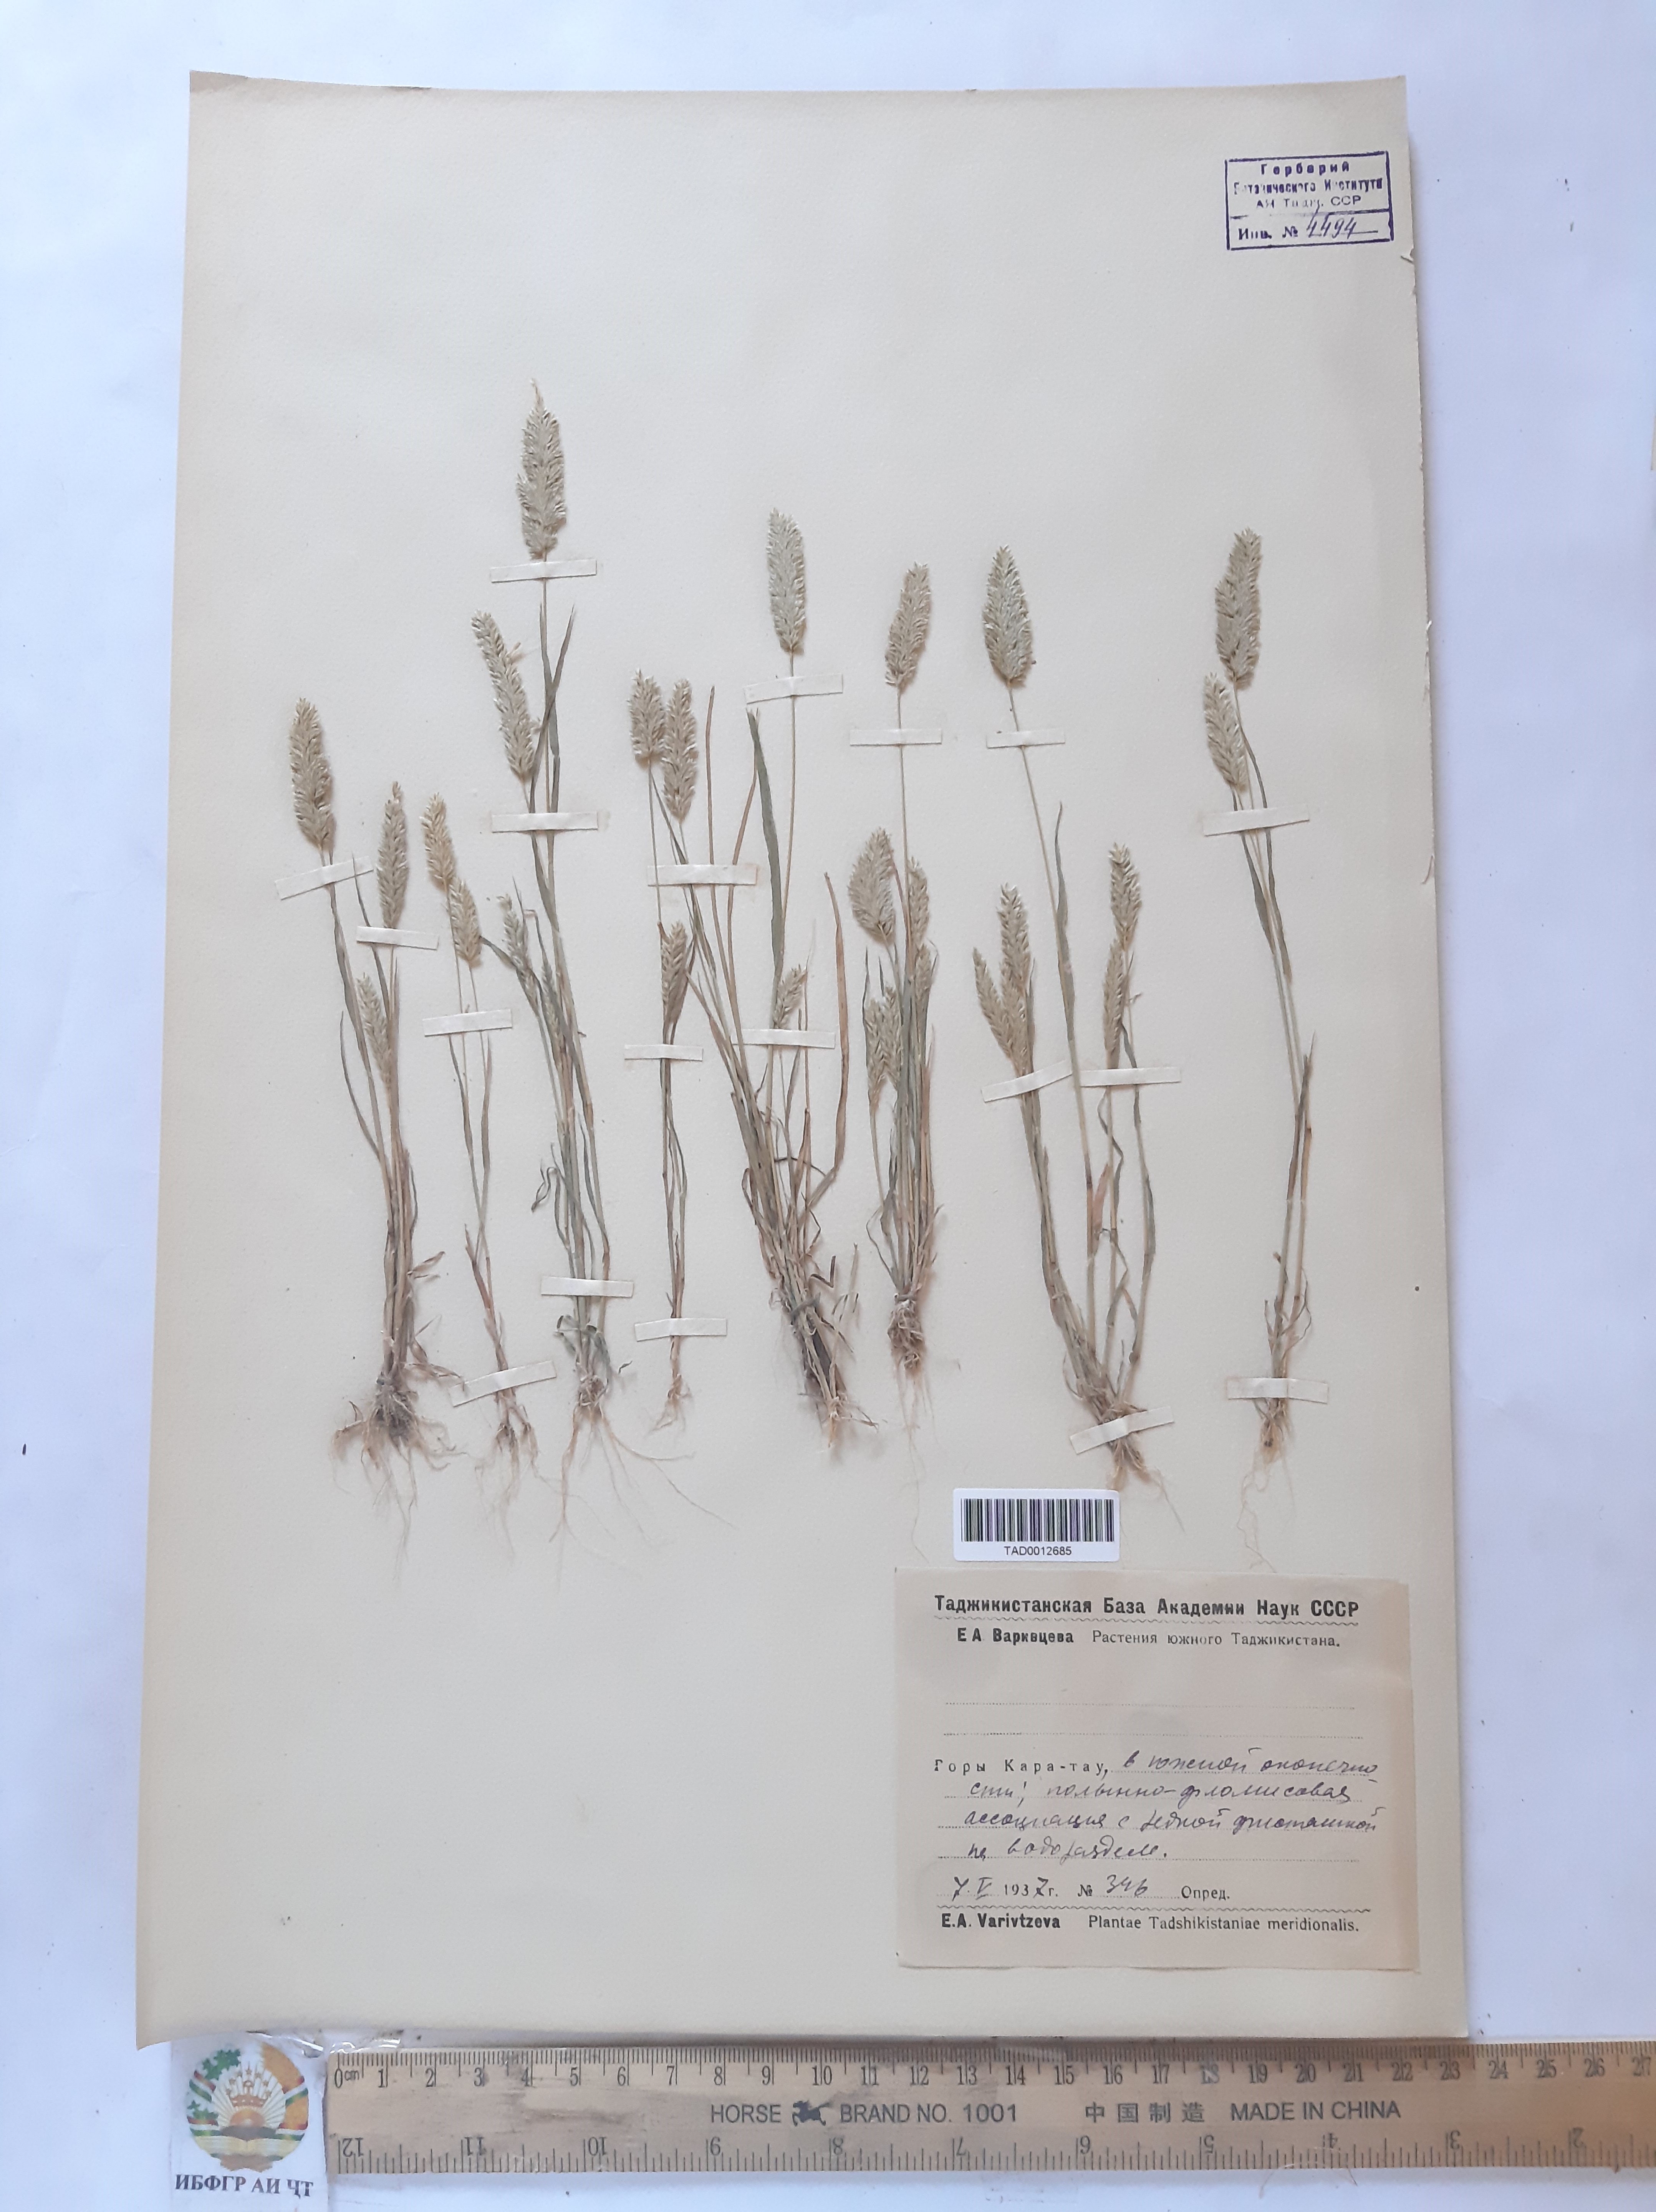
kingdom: Plantae
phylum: Tracheophyta
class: Liliopsida
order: Poales
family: Poaceae
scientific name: Poaceae
